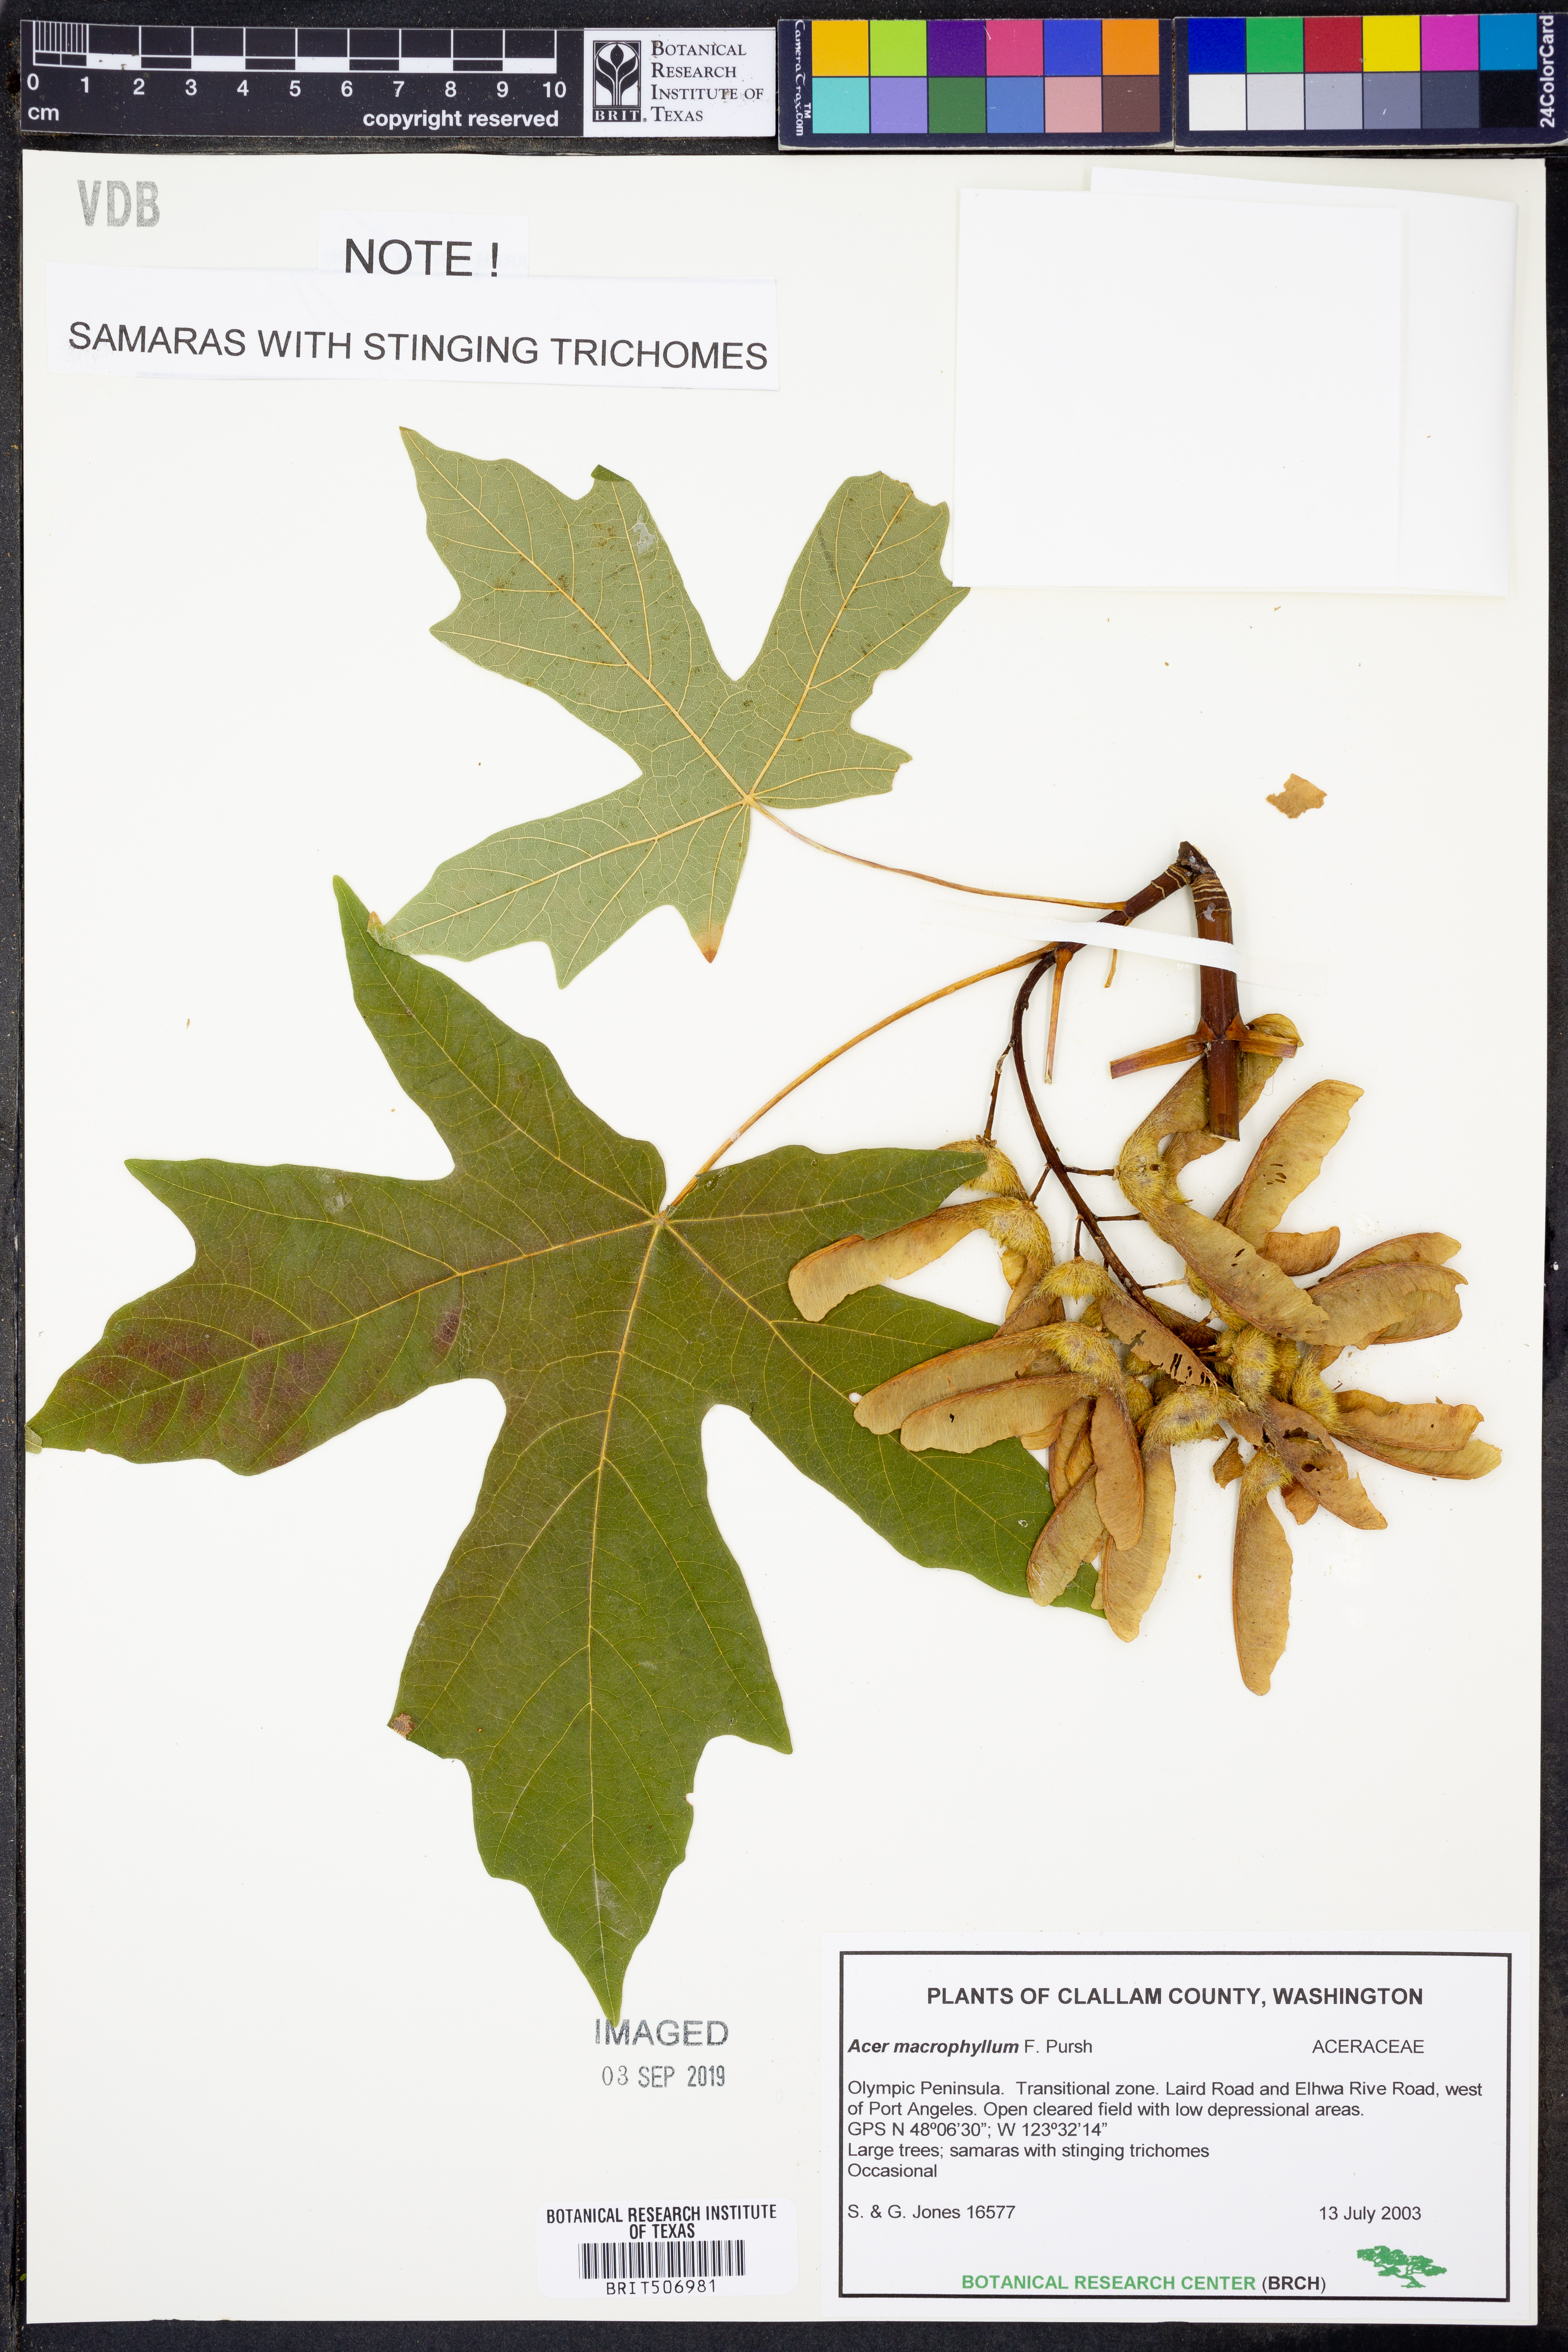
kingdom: Plantae
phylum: Tracheophyta
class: Magnoliopsida
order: Sapindales
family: Sapindaceae
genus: Acer
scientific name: Acer macrophyllum
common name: Oregon maple
